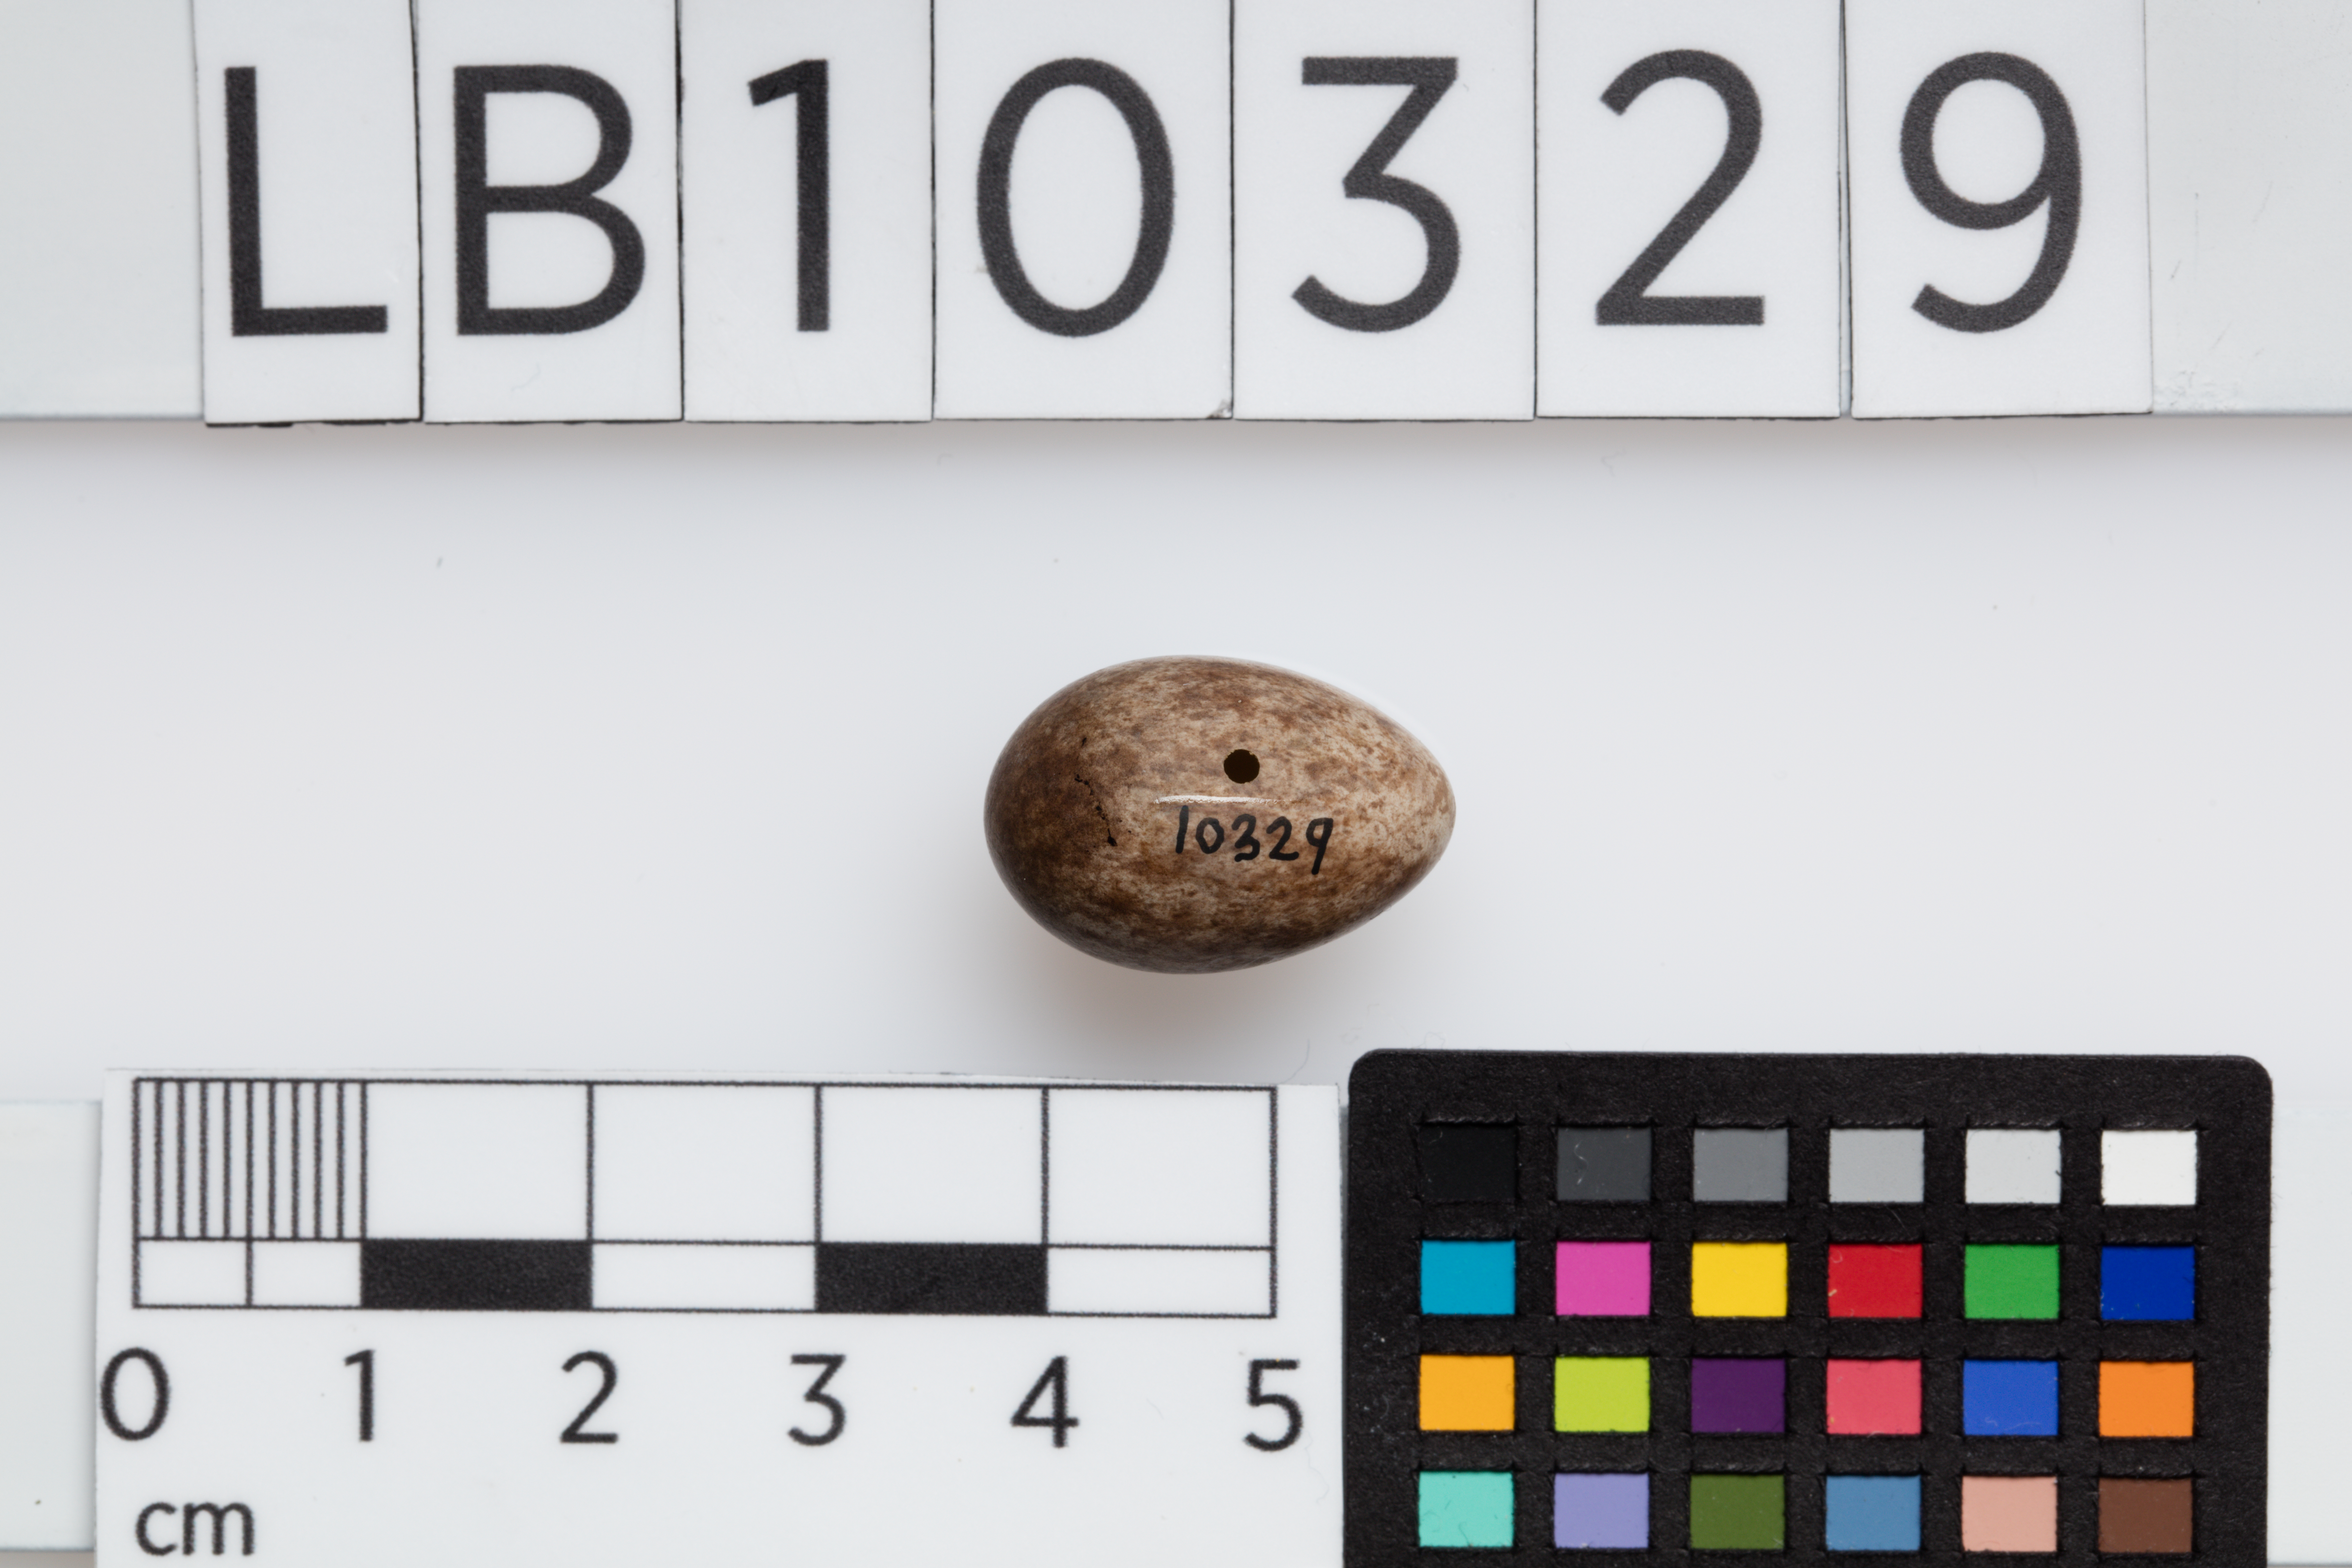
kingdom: Animalia
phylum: Chordata
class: Aves
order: Passeriformes
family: Motacillidae
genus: Anthus
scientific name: Anthus trivialis
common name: Tree pipit
